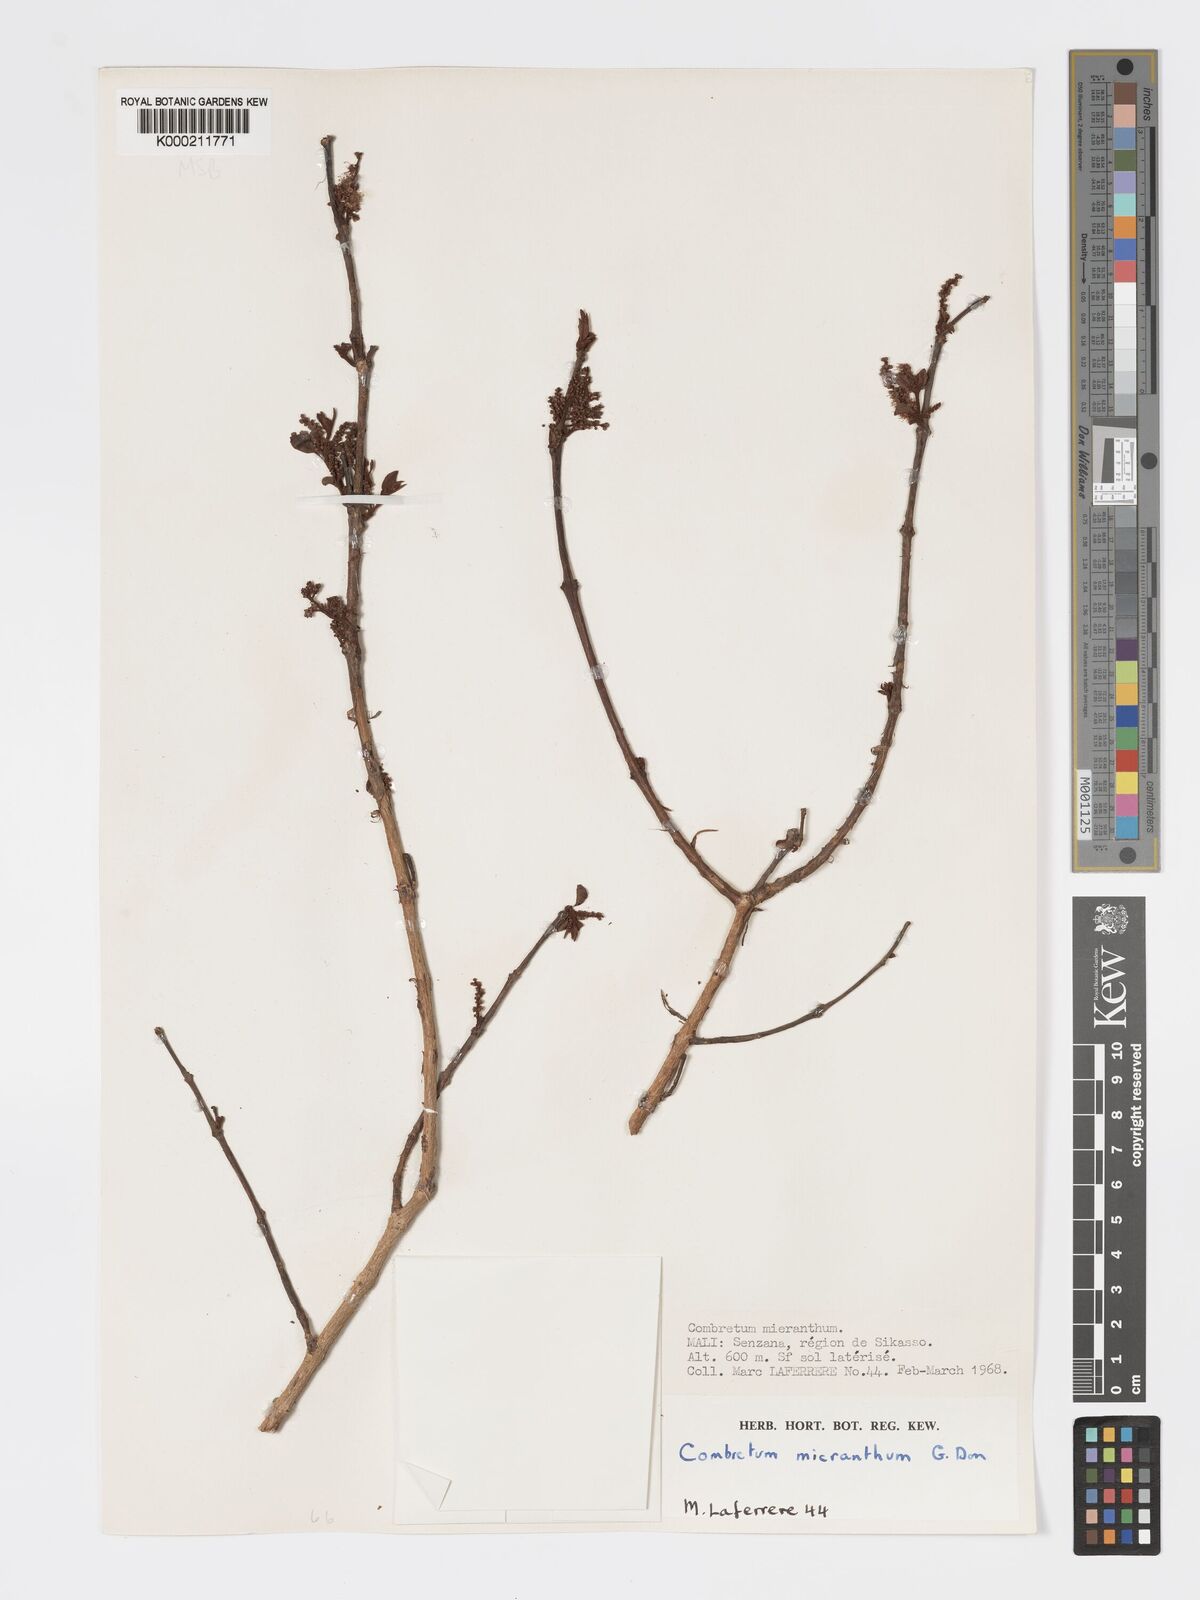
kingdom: Plantae
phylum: Tracheophyta
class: Magnoliopsida
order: Myrtales
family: Combretaceae
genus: Combretum
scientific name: Combretum micranthum
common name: Opium-antidote
